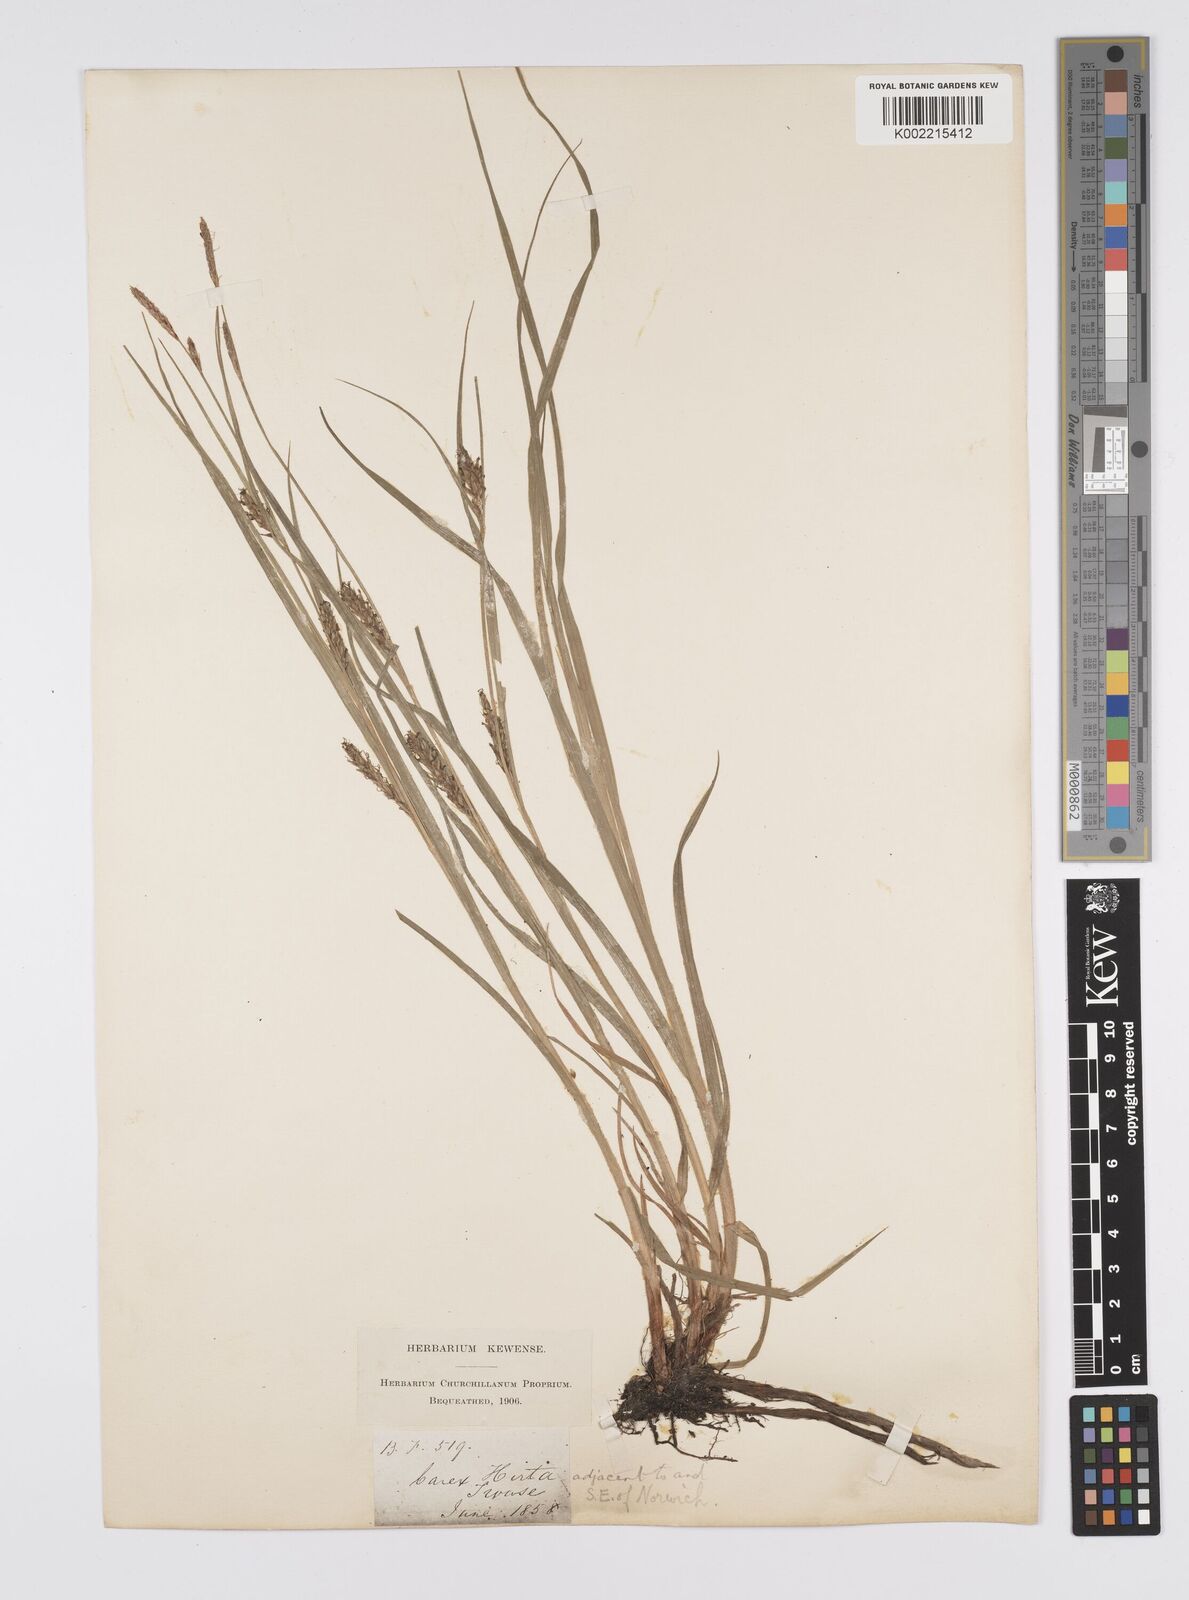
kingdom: Plantae
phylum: Tracheophyta
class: Liliopsida
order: Poales
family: Cyperaceae
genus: Carex
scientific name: Carex hirta
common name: Hairy sedge
